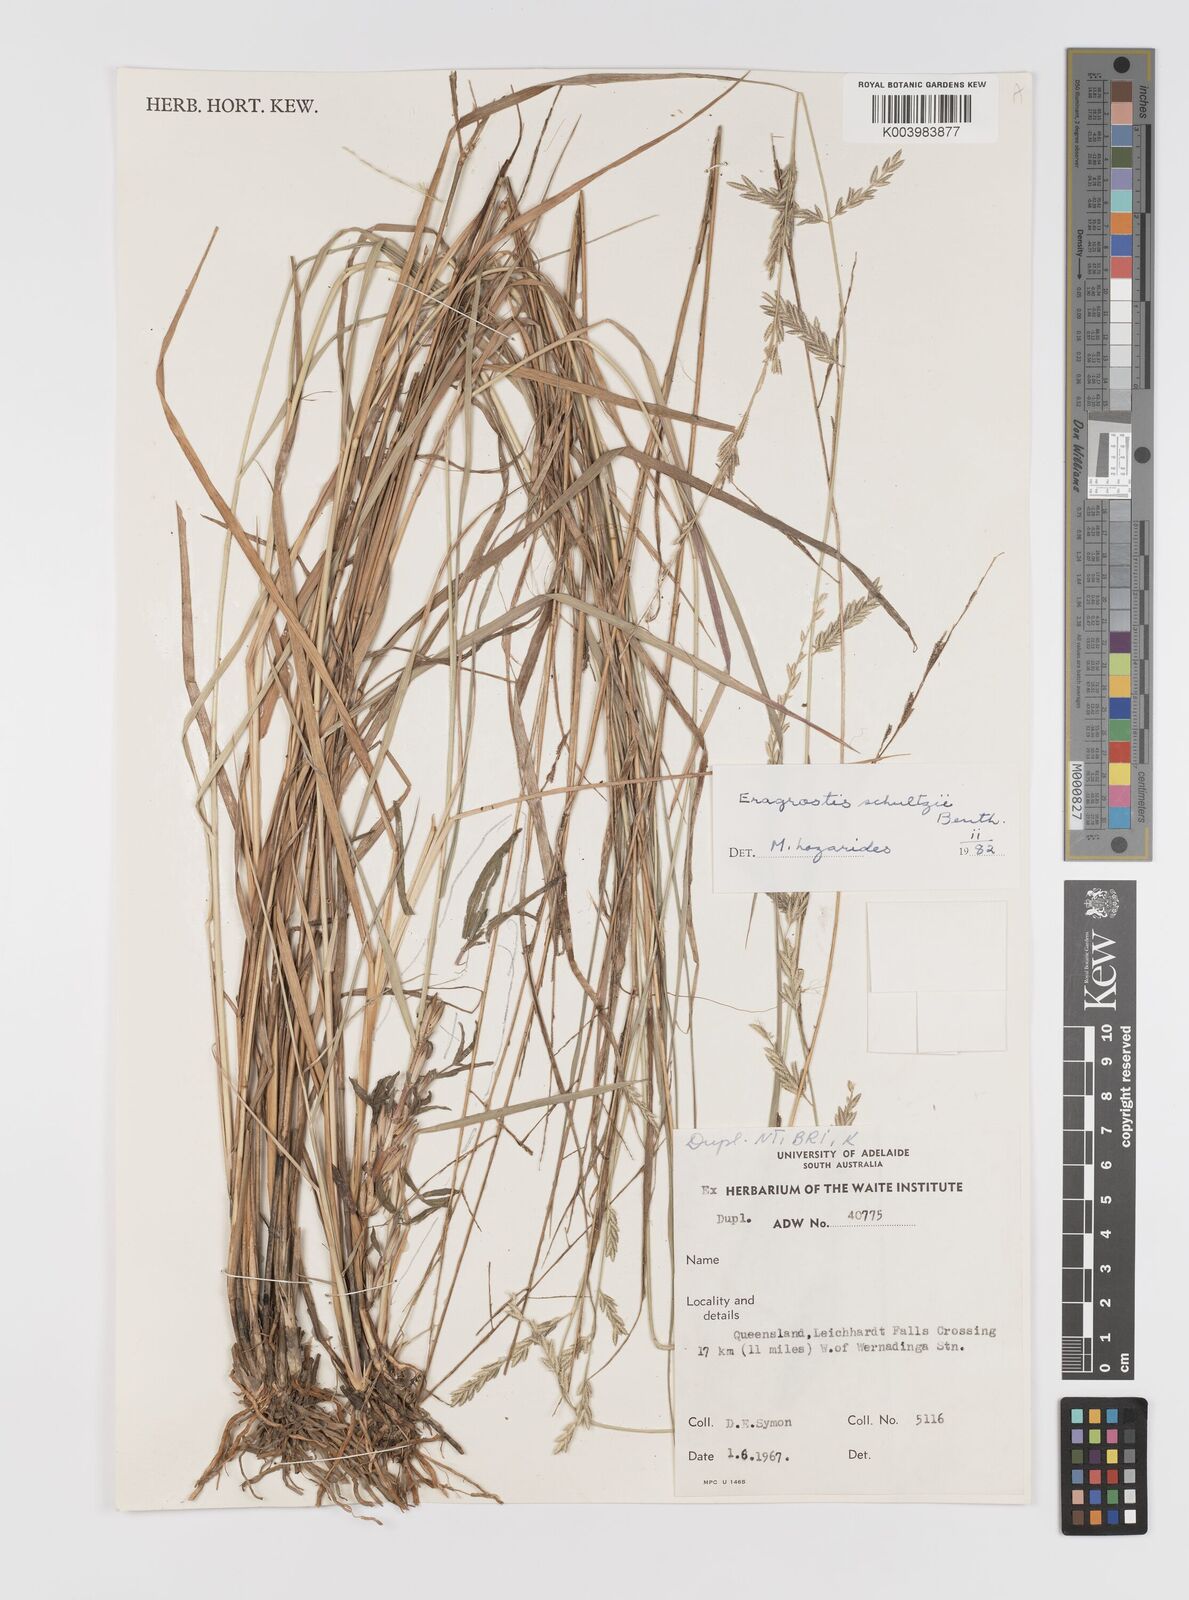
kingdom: Plantae
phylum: Tracheophyta
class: Liliopsida
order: Poales
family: Poaceae
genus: Eragrostis
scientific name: Eragrostis schultzii
